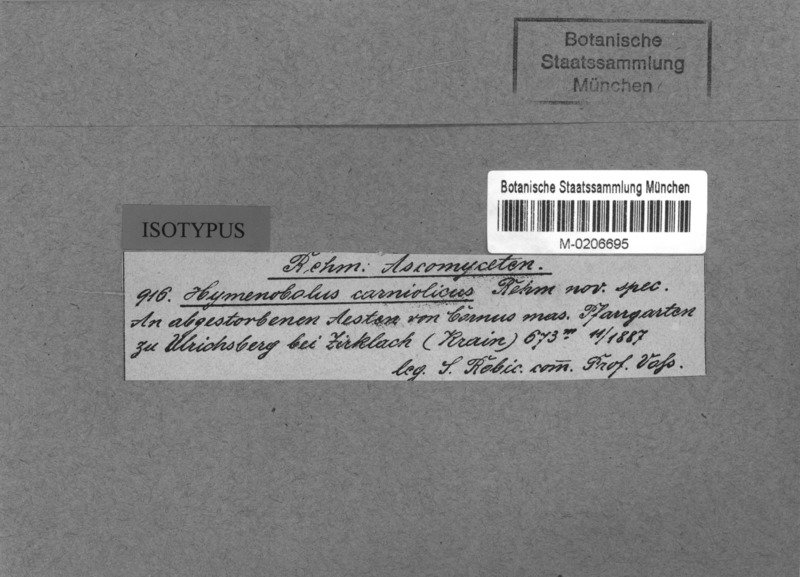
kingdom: Fungi
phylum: Ascomycota
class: Lecanoromycetes
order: Ostropales
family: Stictidaceae
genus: Stictophacidium
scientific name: Stictophacidium carniolicum
